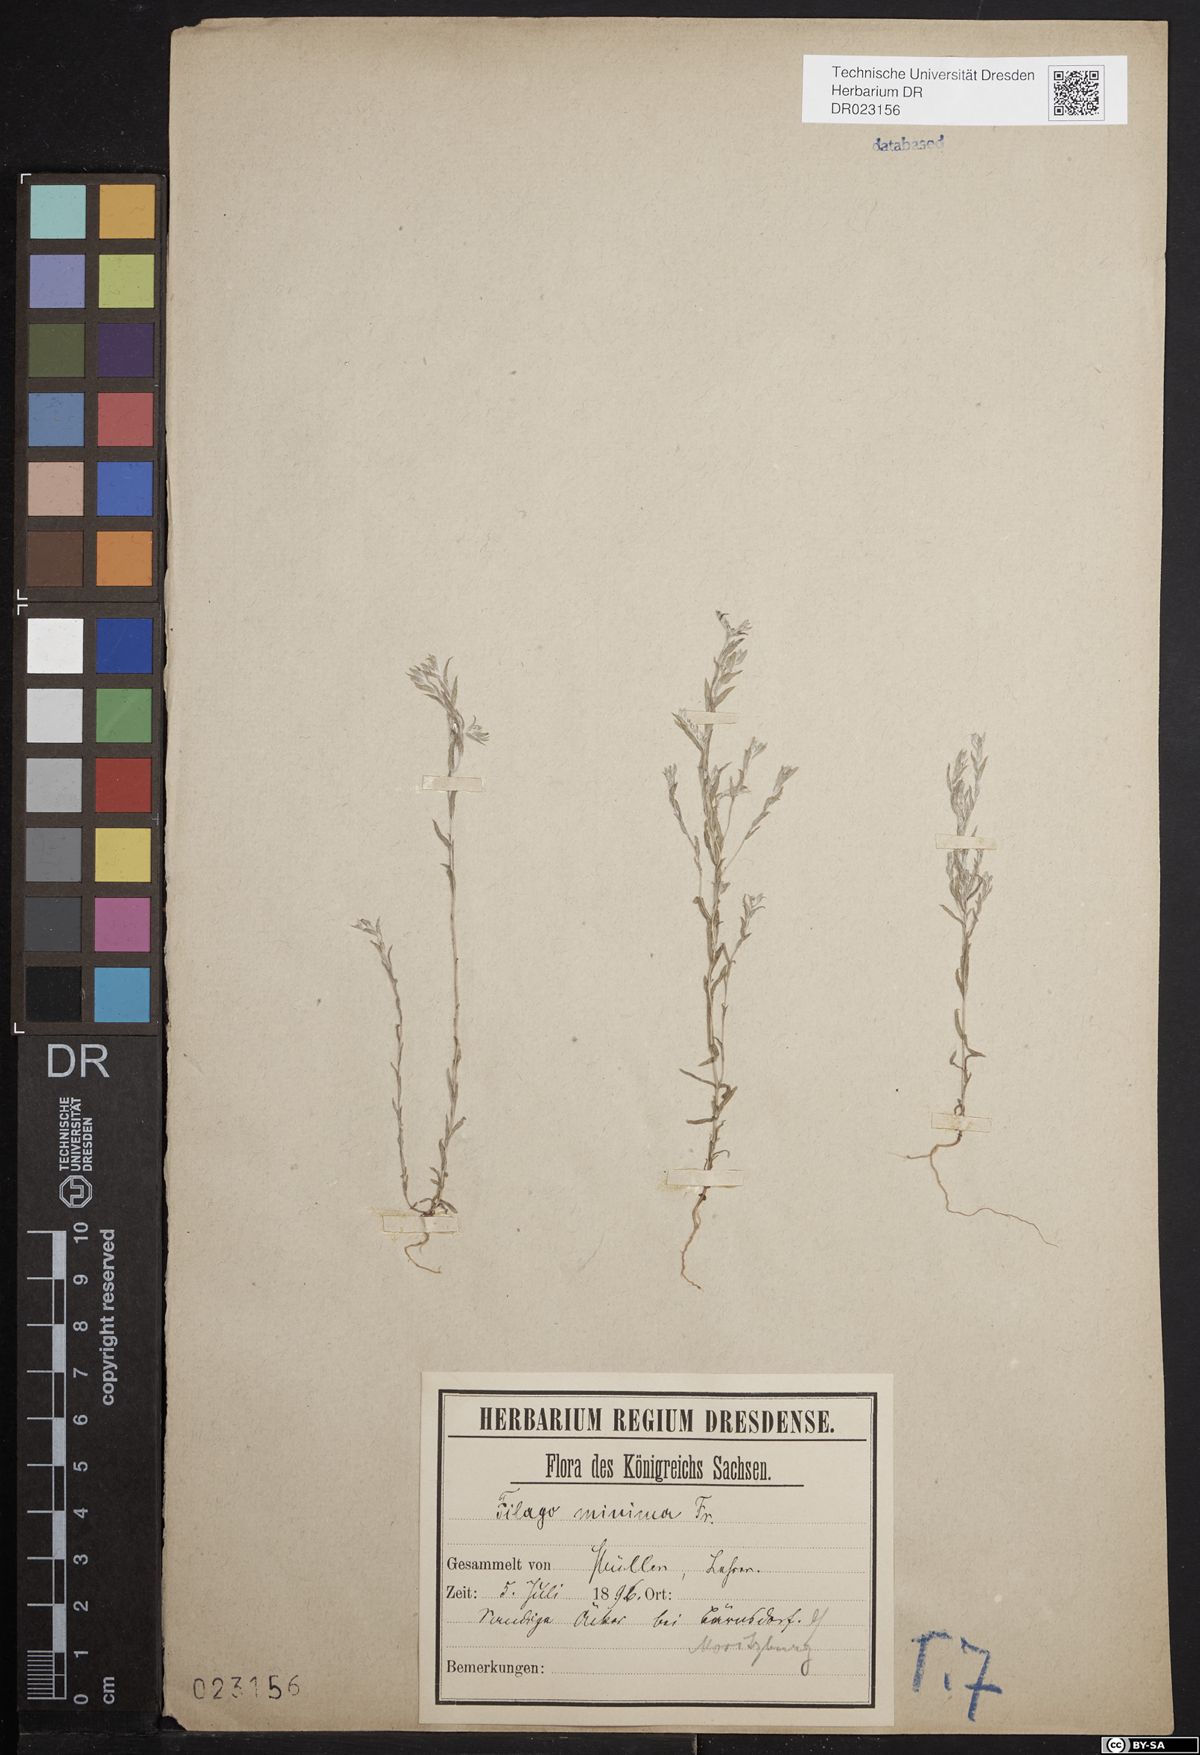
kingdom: Plantae
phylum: Tracheophyta
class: Magnoliopsida
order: Asterales
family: Asteraceae
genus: Logfia
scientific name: Logfia minima
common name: Little cottonrose
